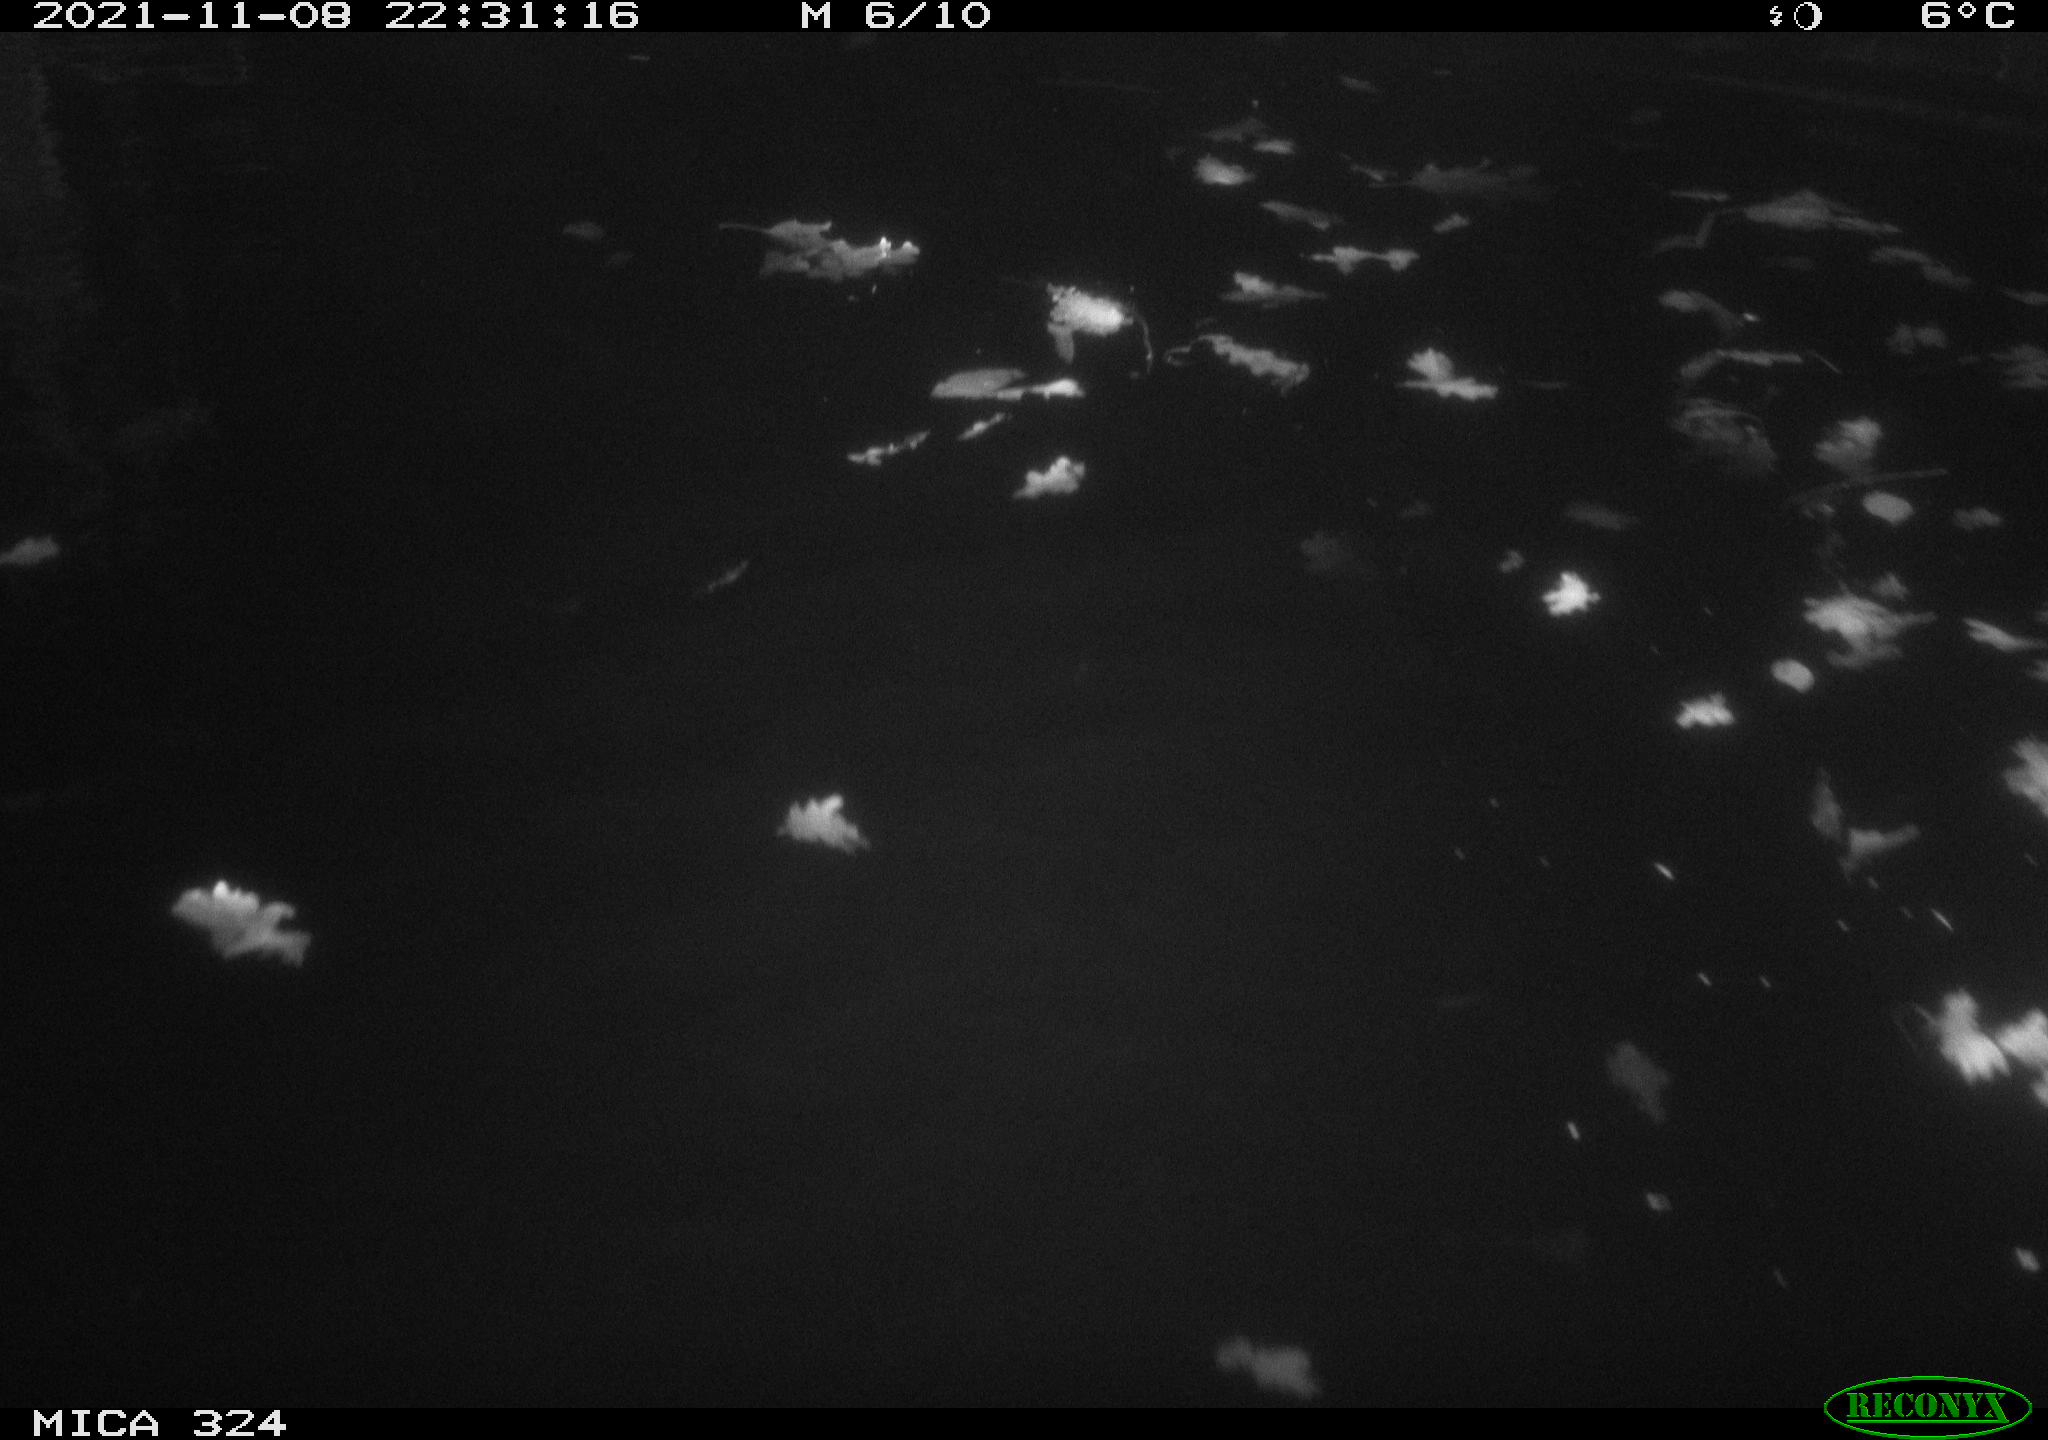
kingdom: Animalia
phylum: Chordata
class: Mammalia
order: Rodentia
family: Cricetidae
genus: Ondatra
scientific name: Ondatra zibethicus
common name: Muskrat
